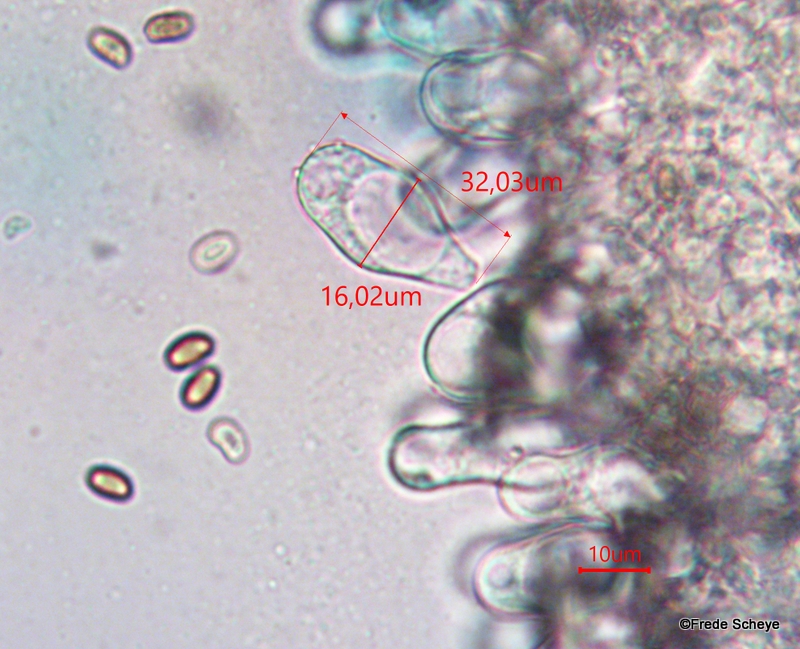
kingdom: Fungi
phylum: Basidiomycota
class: Agaricomycetes
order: Agaricales
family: Psathyrellaceae
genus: Candolleomyces
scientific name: Candolleomyces candolleanus
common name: Candolles mørkhat
